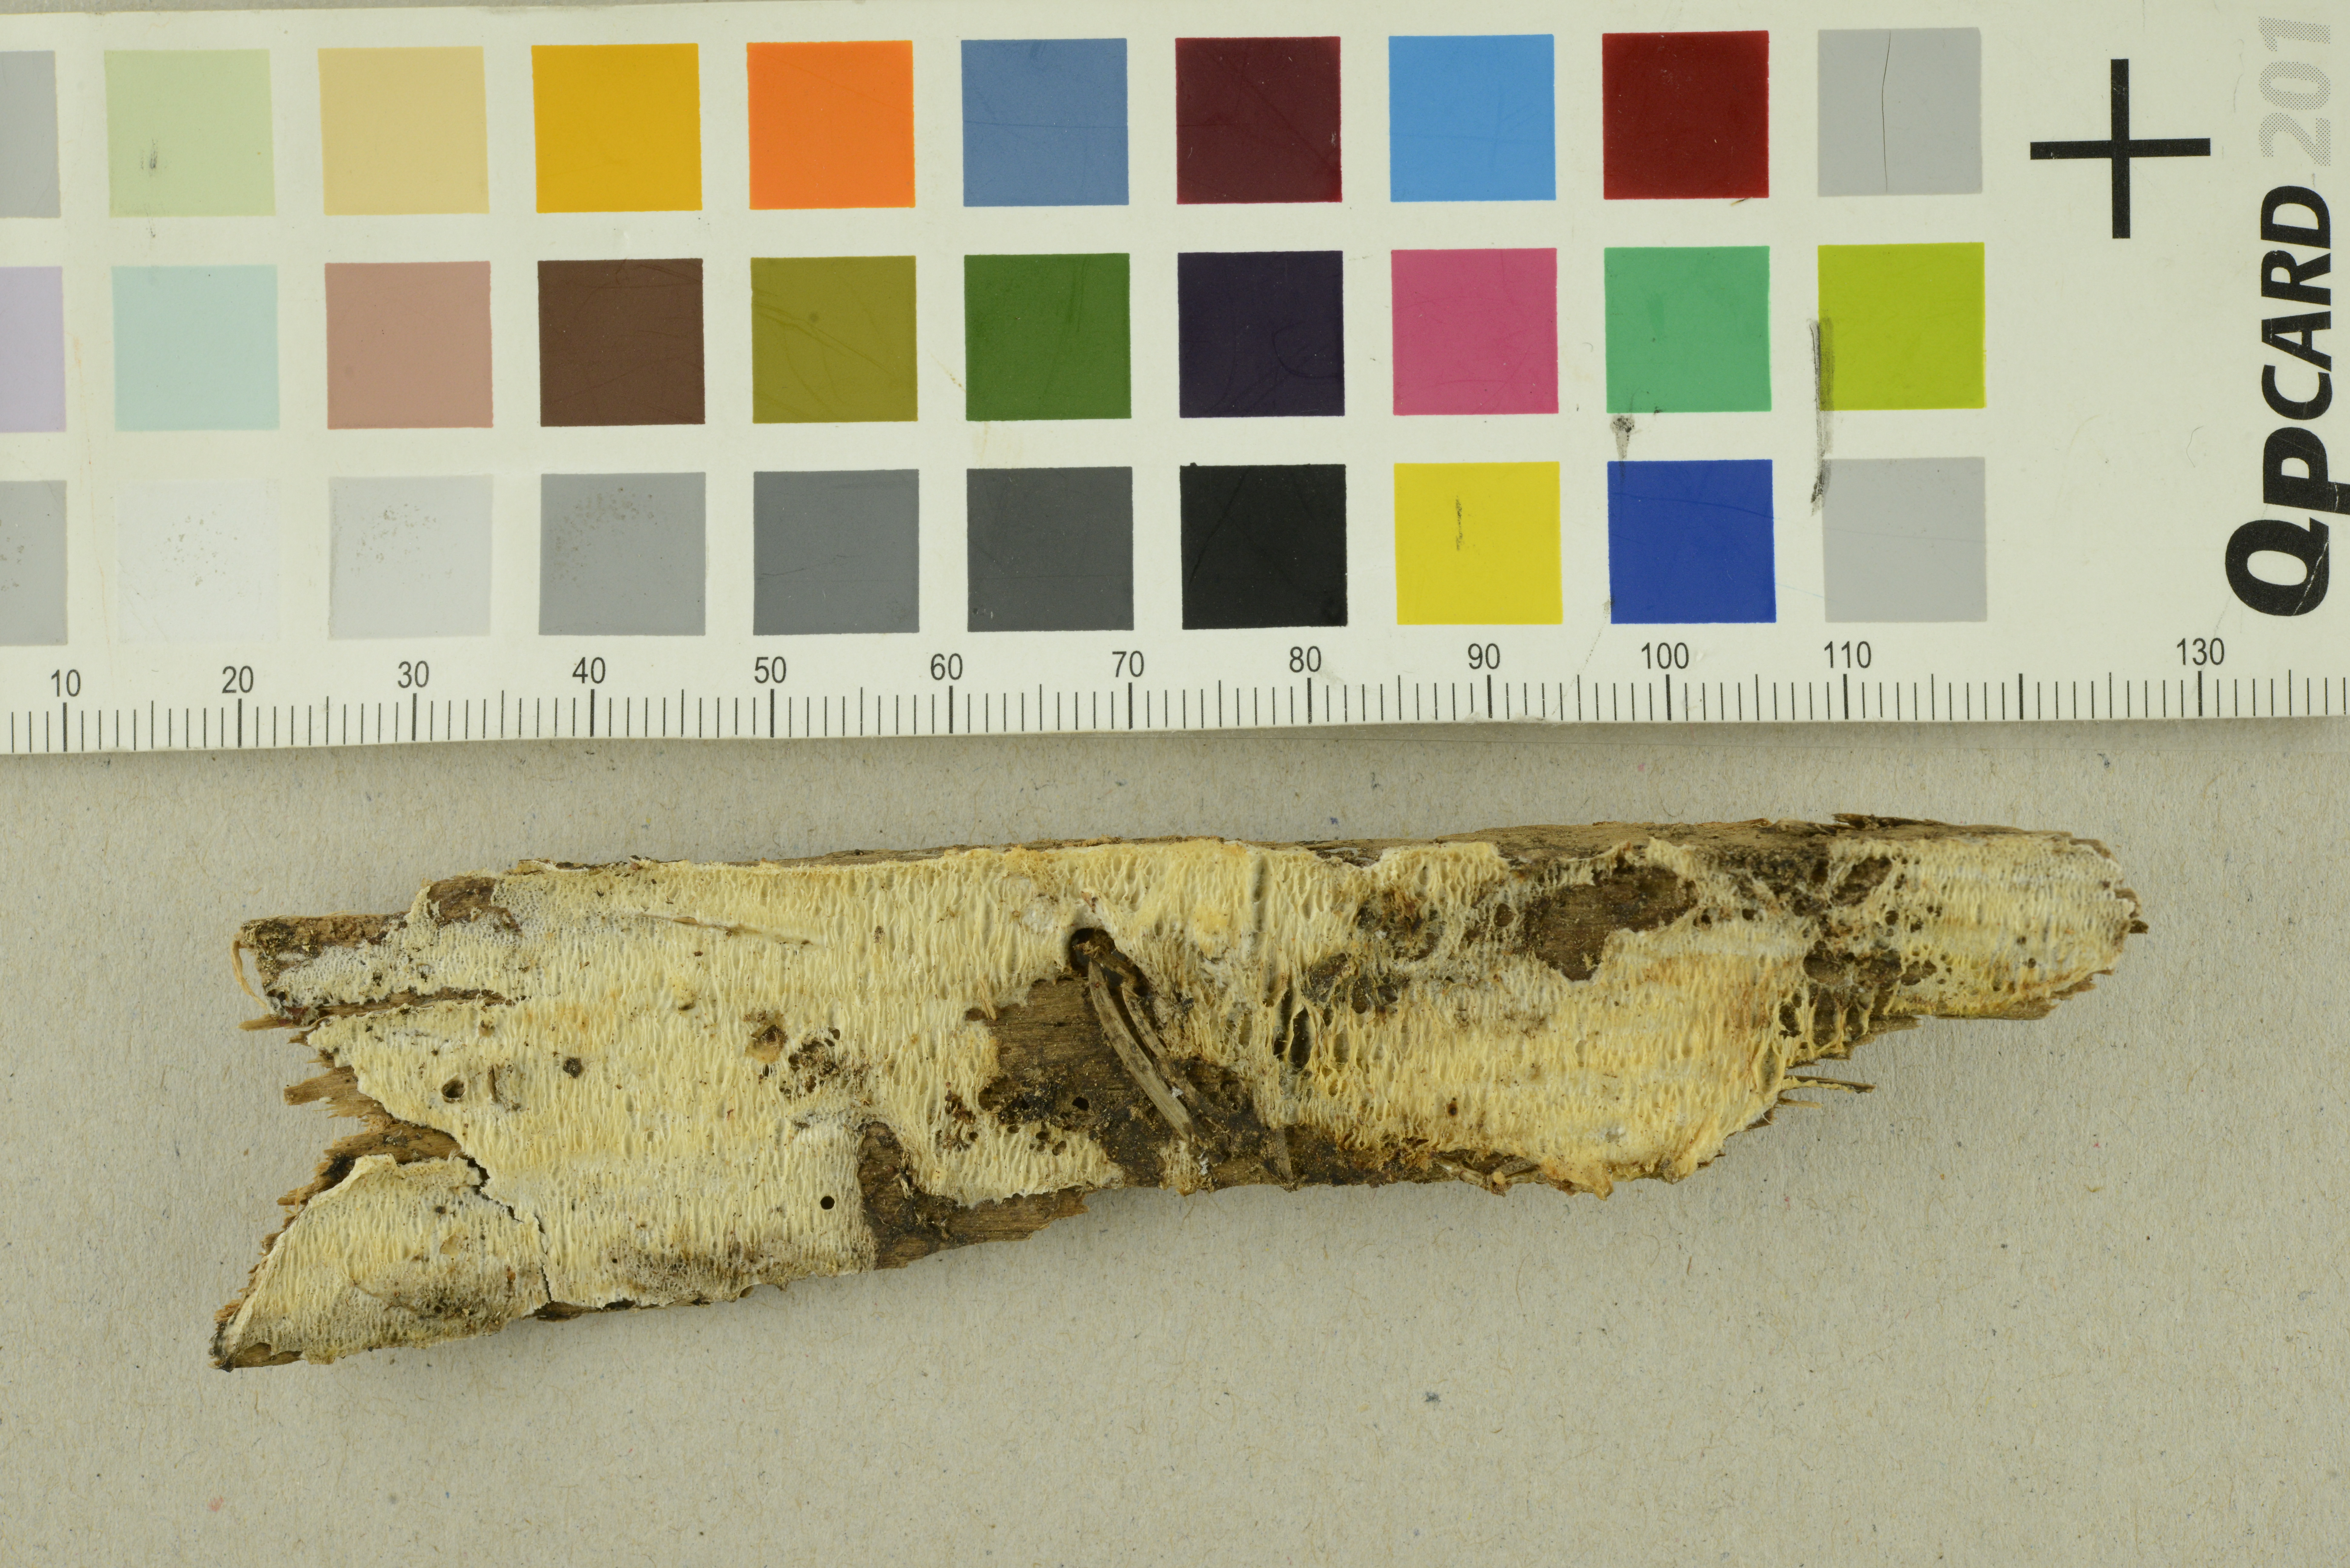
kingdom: Fungi
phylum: Basidiomycota
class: Agaricomycetes
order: Polyporales
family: Incrustoporiaceae
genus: Skeletocutis
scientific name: Skeletocutis exilis
